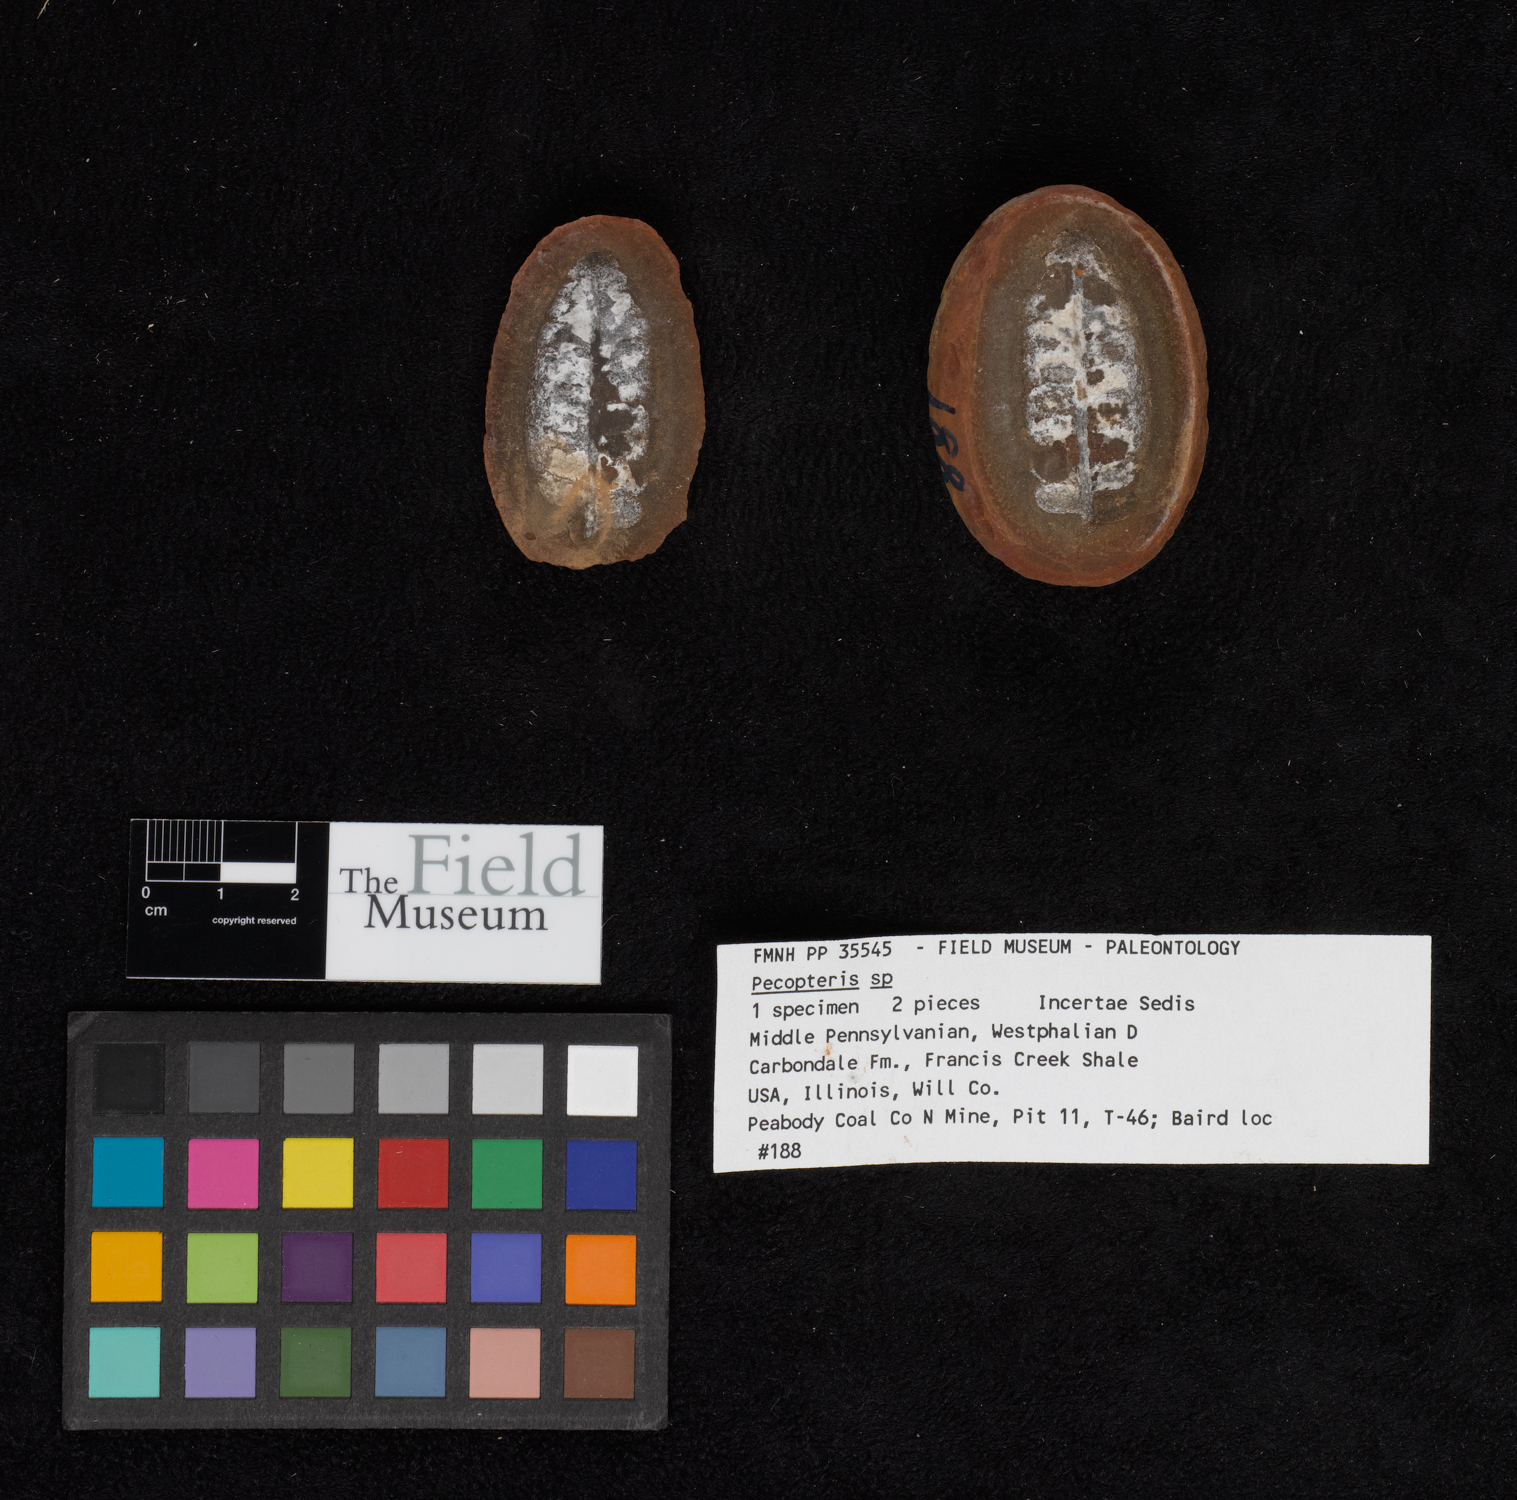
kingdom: Plantae
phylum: Tracheophyta
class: Polypodiopsida
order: Marattiales
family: Asterothecaceae
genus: Pecopteris
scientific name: Pecopteris
